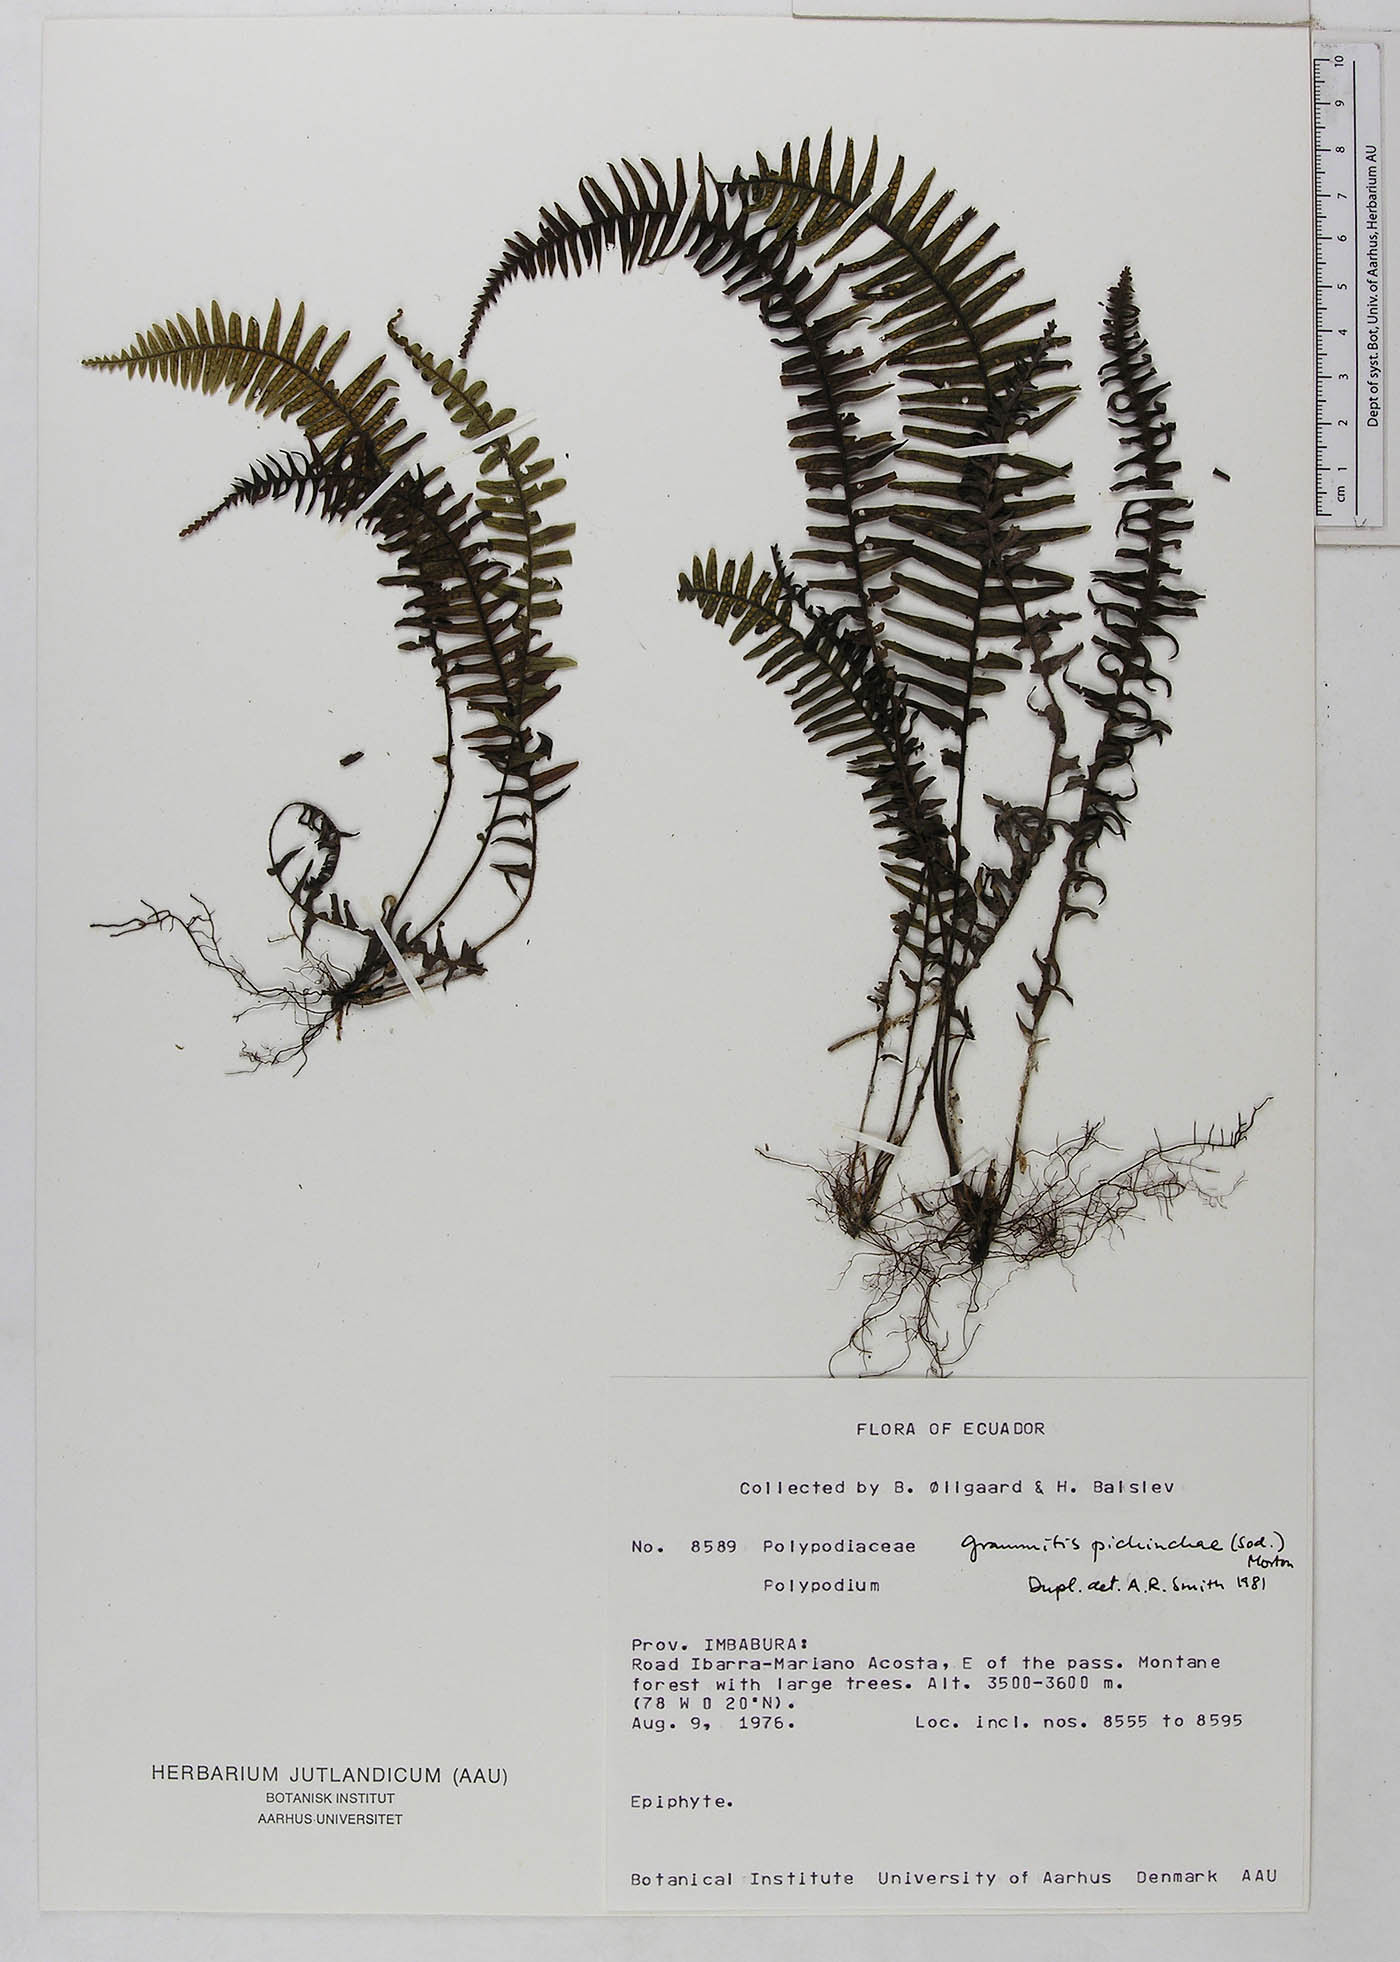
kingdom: Plantae
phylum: Tracheophyta
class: Polypodiopsida
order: Polypodiales
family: Polypodiaceae
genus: Ascogrammitis
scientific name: Ascogrammitis pichinchae
